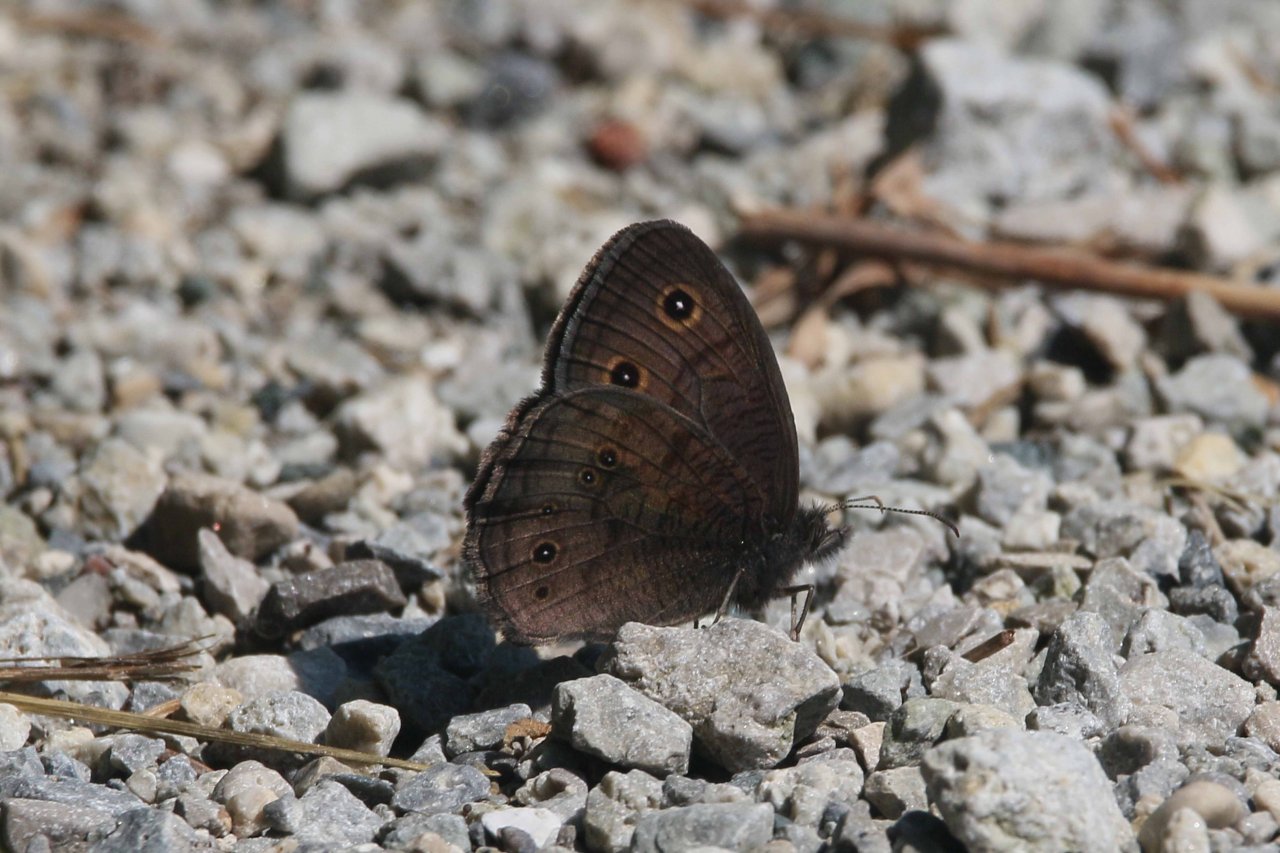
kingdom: Animalia
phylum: Arthropoda
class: Insecta
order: Lepidoptera
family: Nymphalidae
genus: Cercyonis
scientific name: Cercyonis pegala
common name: Common Wood-Nymph
